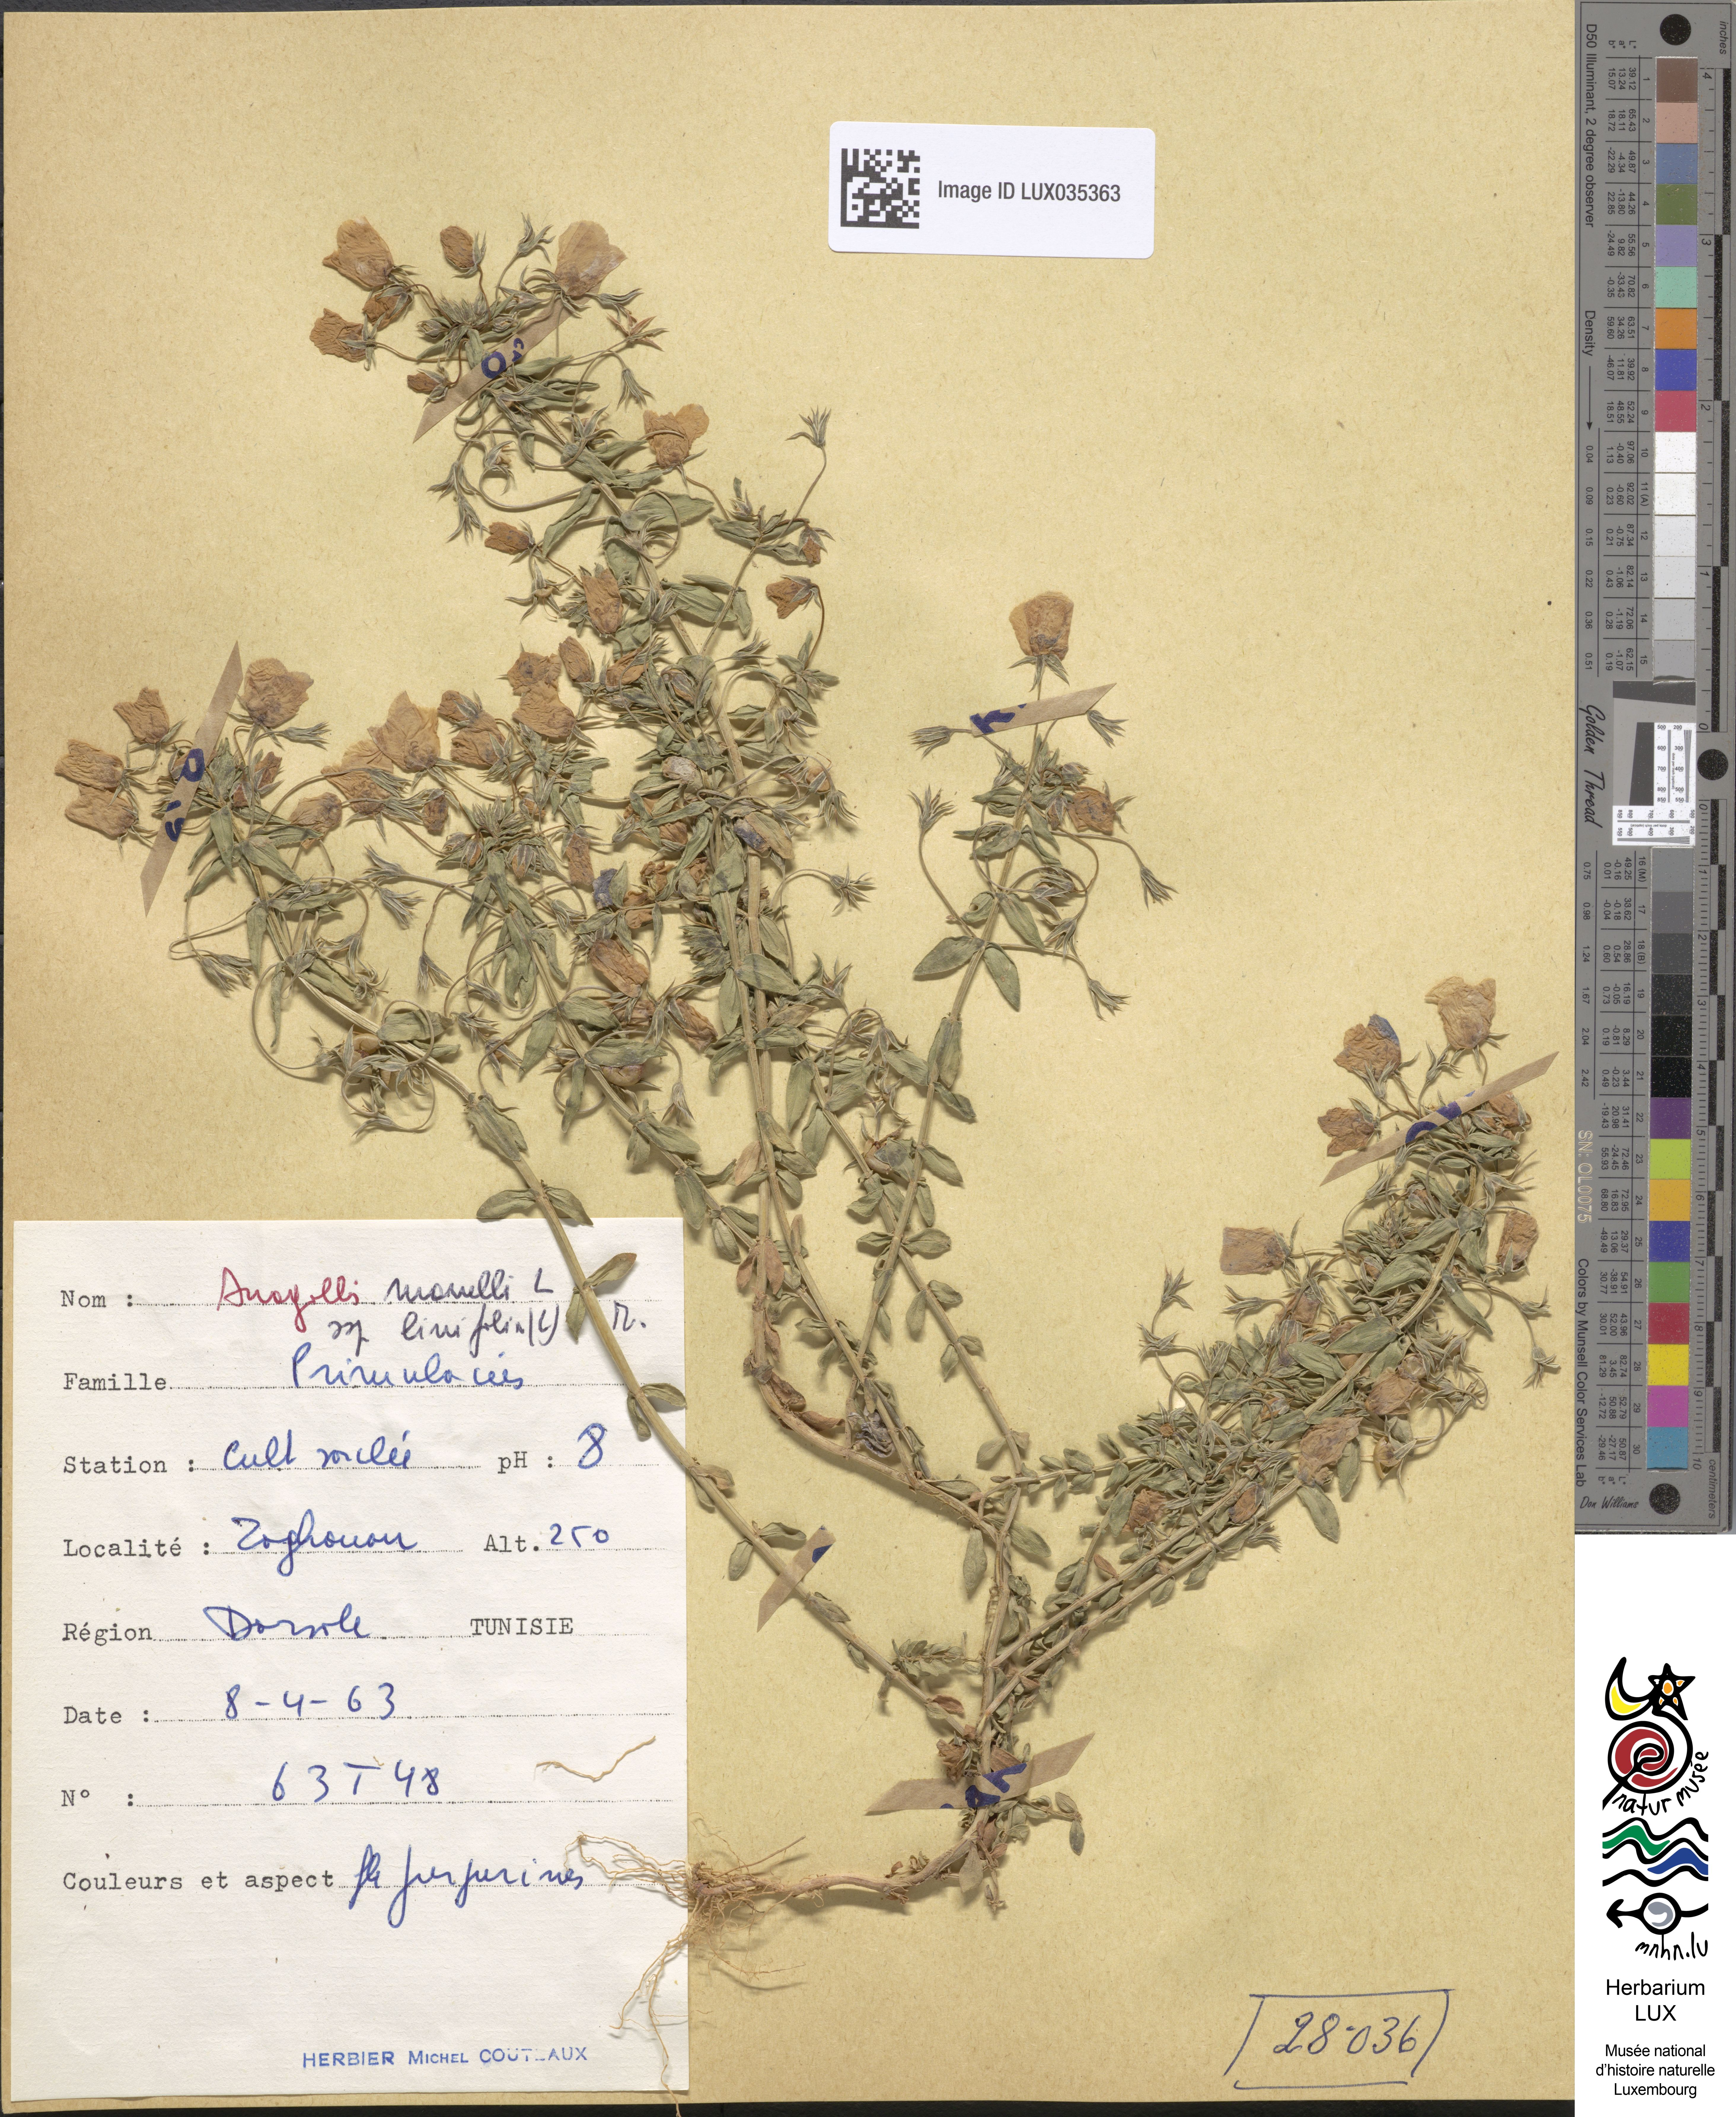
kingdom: Plantae
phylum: Tracheophyta
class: Magnoliopsida
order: Ericales
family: Primulaceae
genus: Lysimachia
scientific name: Lysimachia monelli
